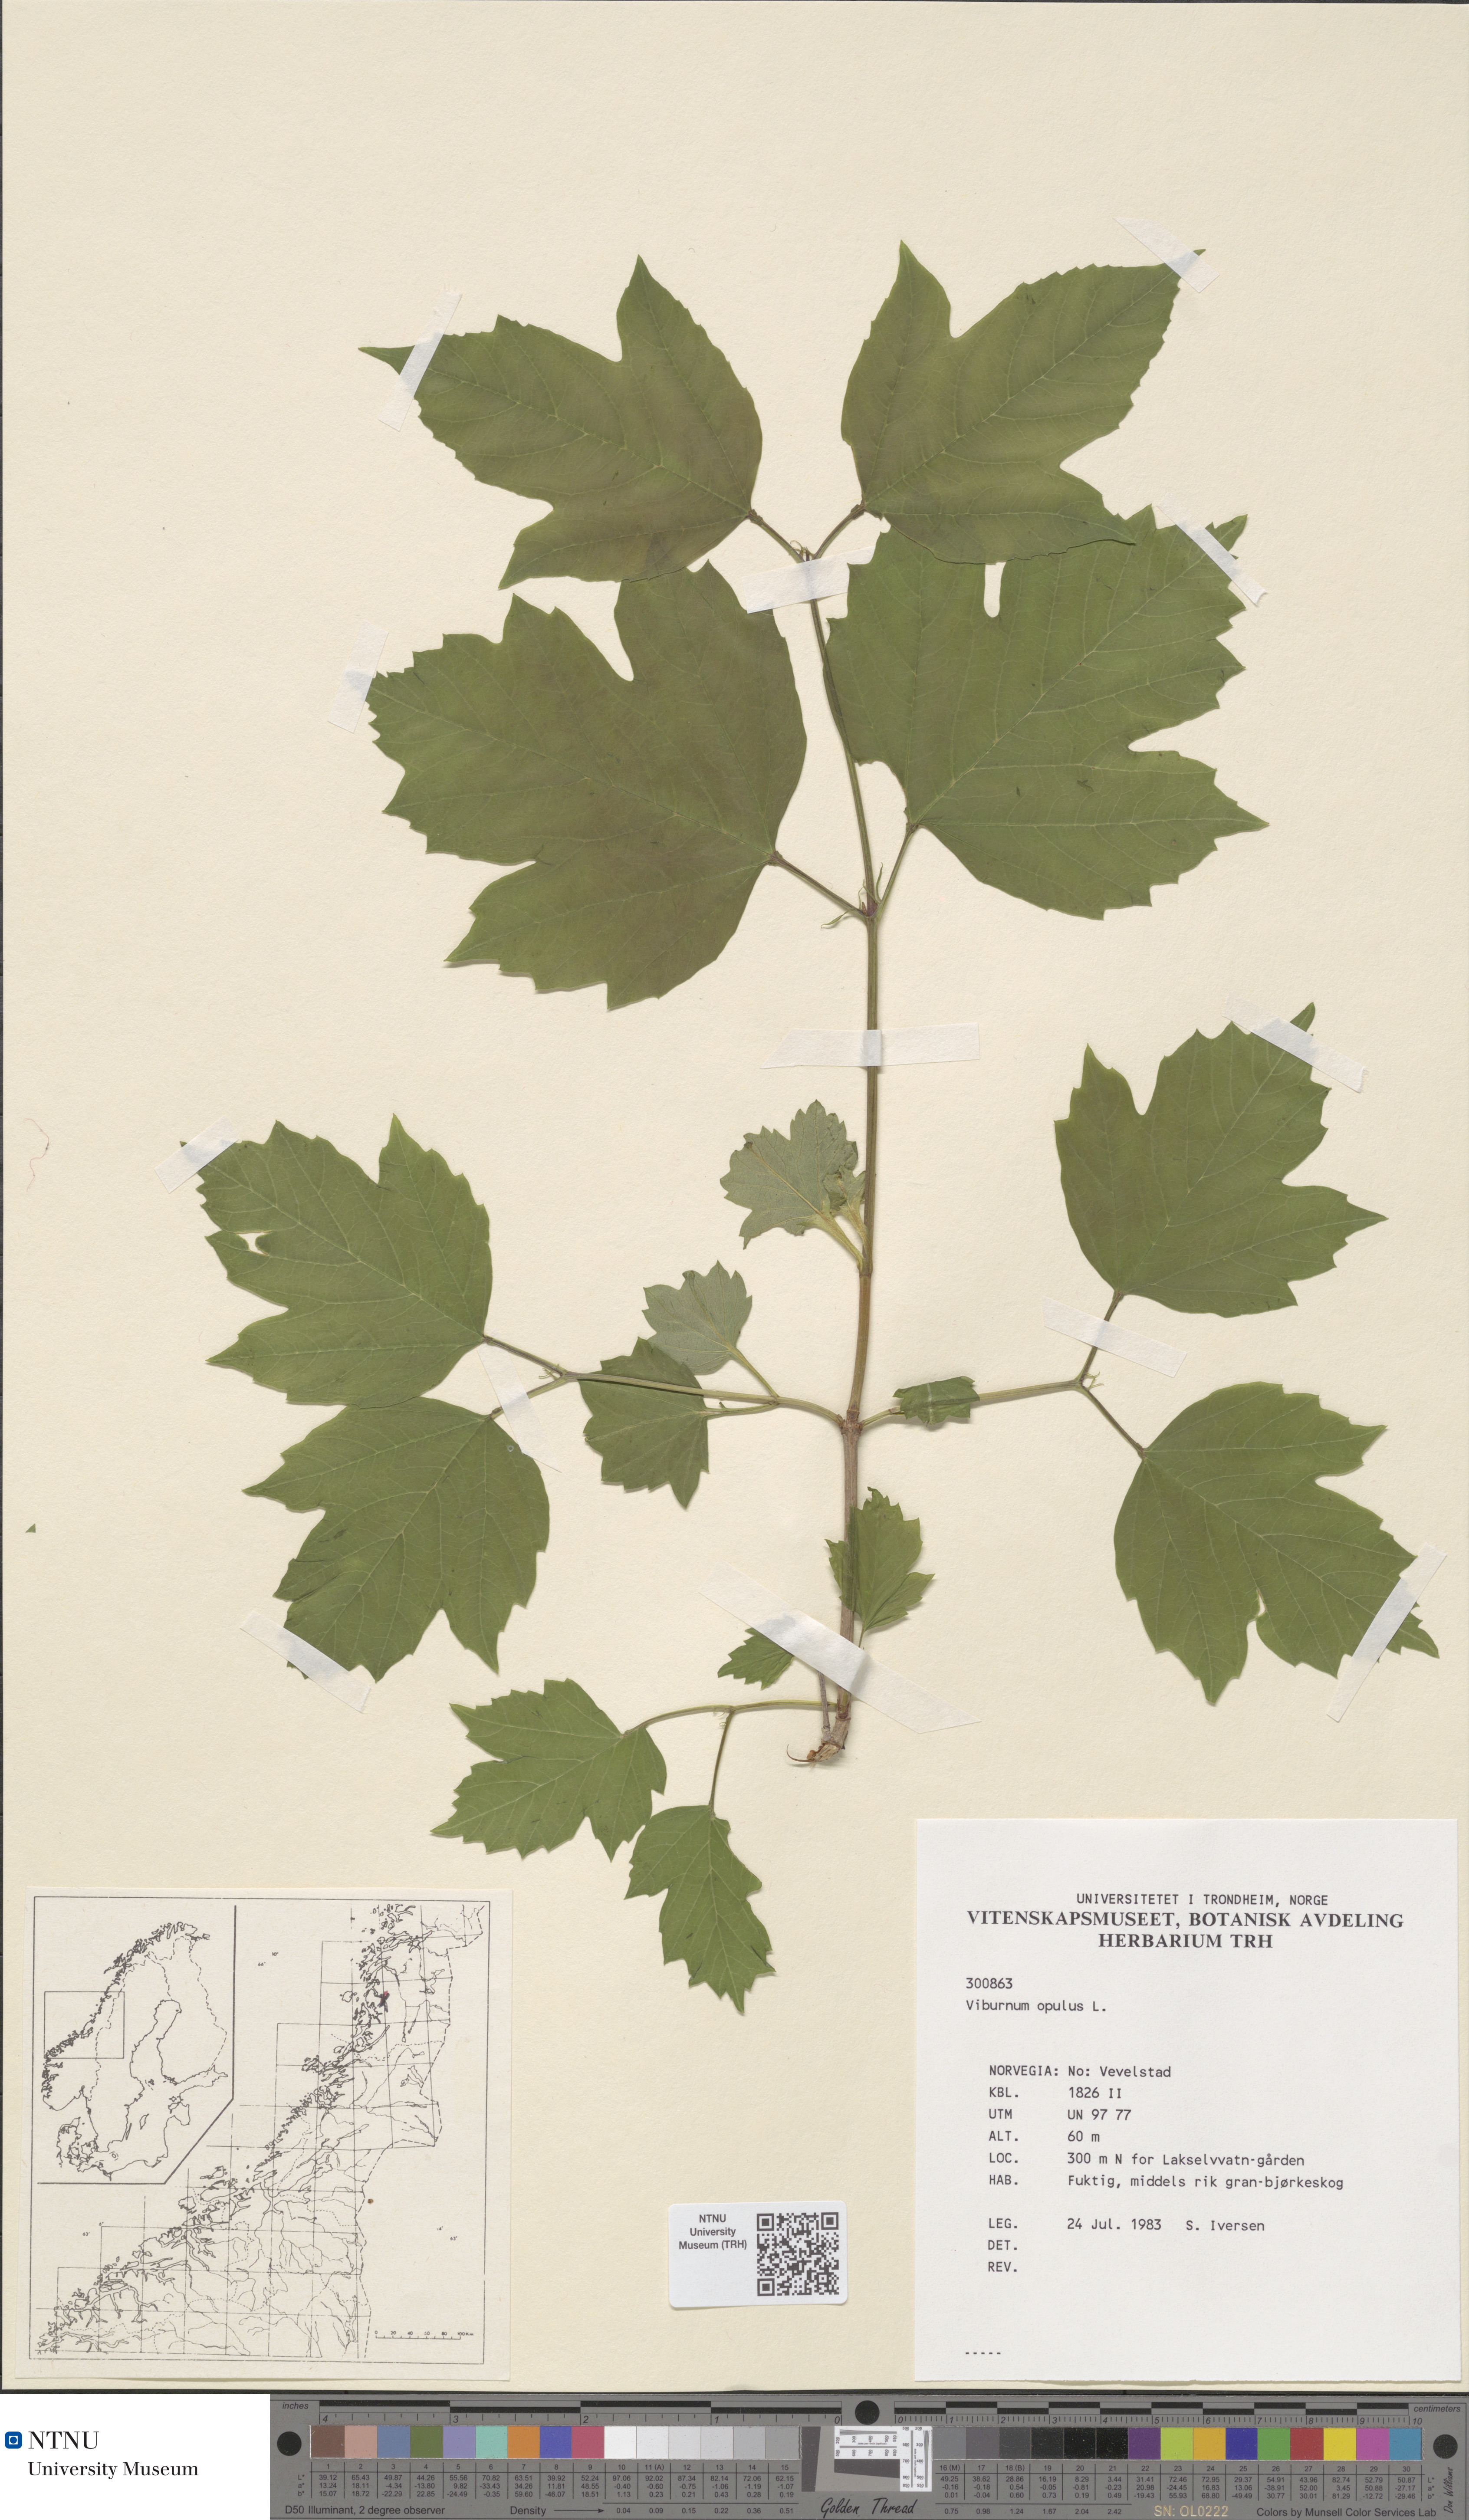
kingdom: Plantae
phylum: Tracheophyta
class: Magnoliopsida
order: Dipsacales
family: Viburnaceae
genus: Viburnum
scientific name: Viburnum opulus
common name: Guelder-rose
